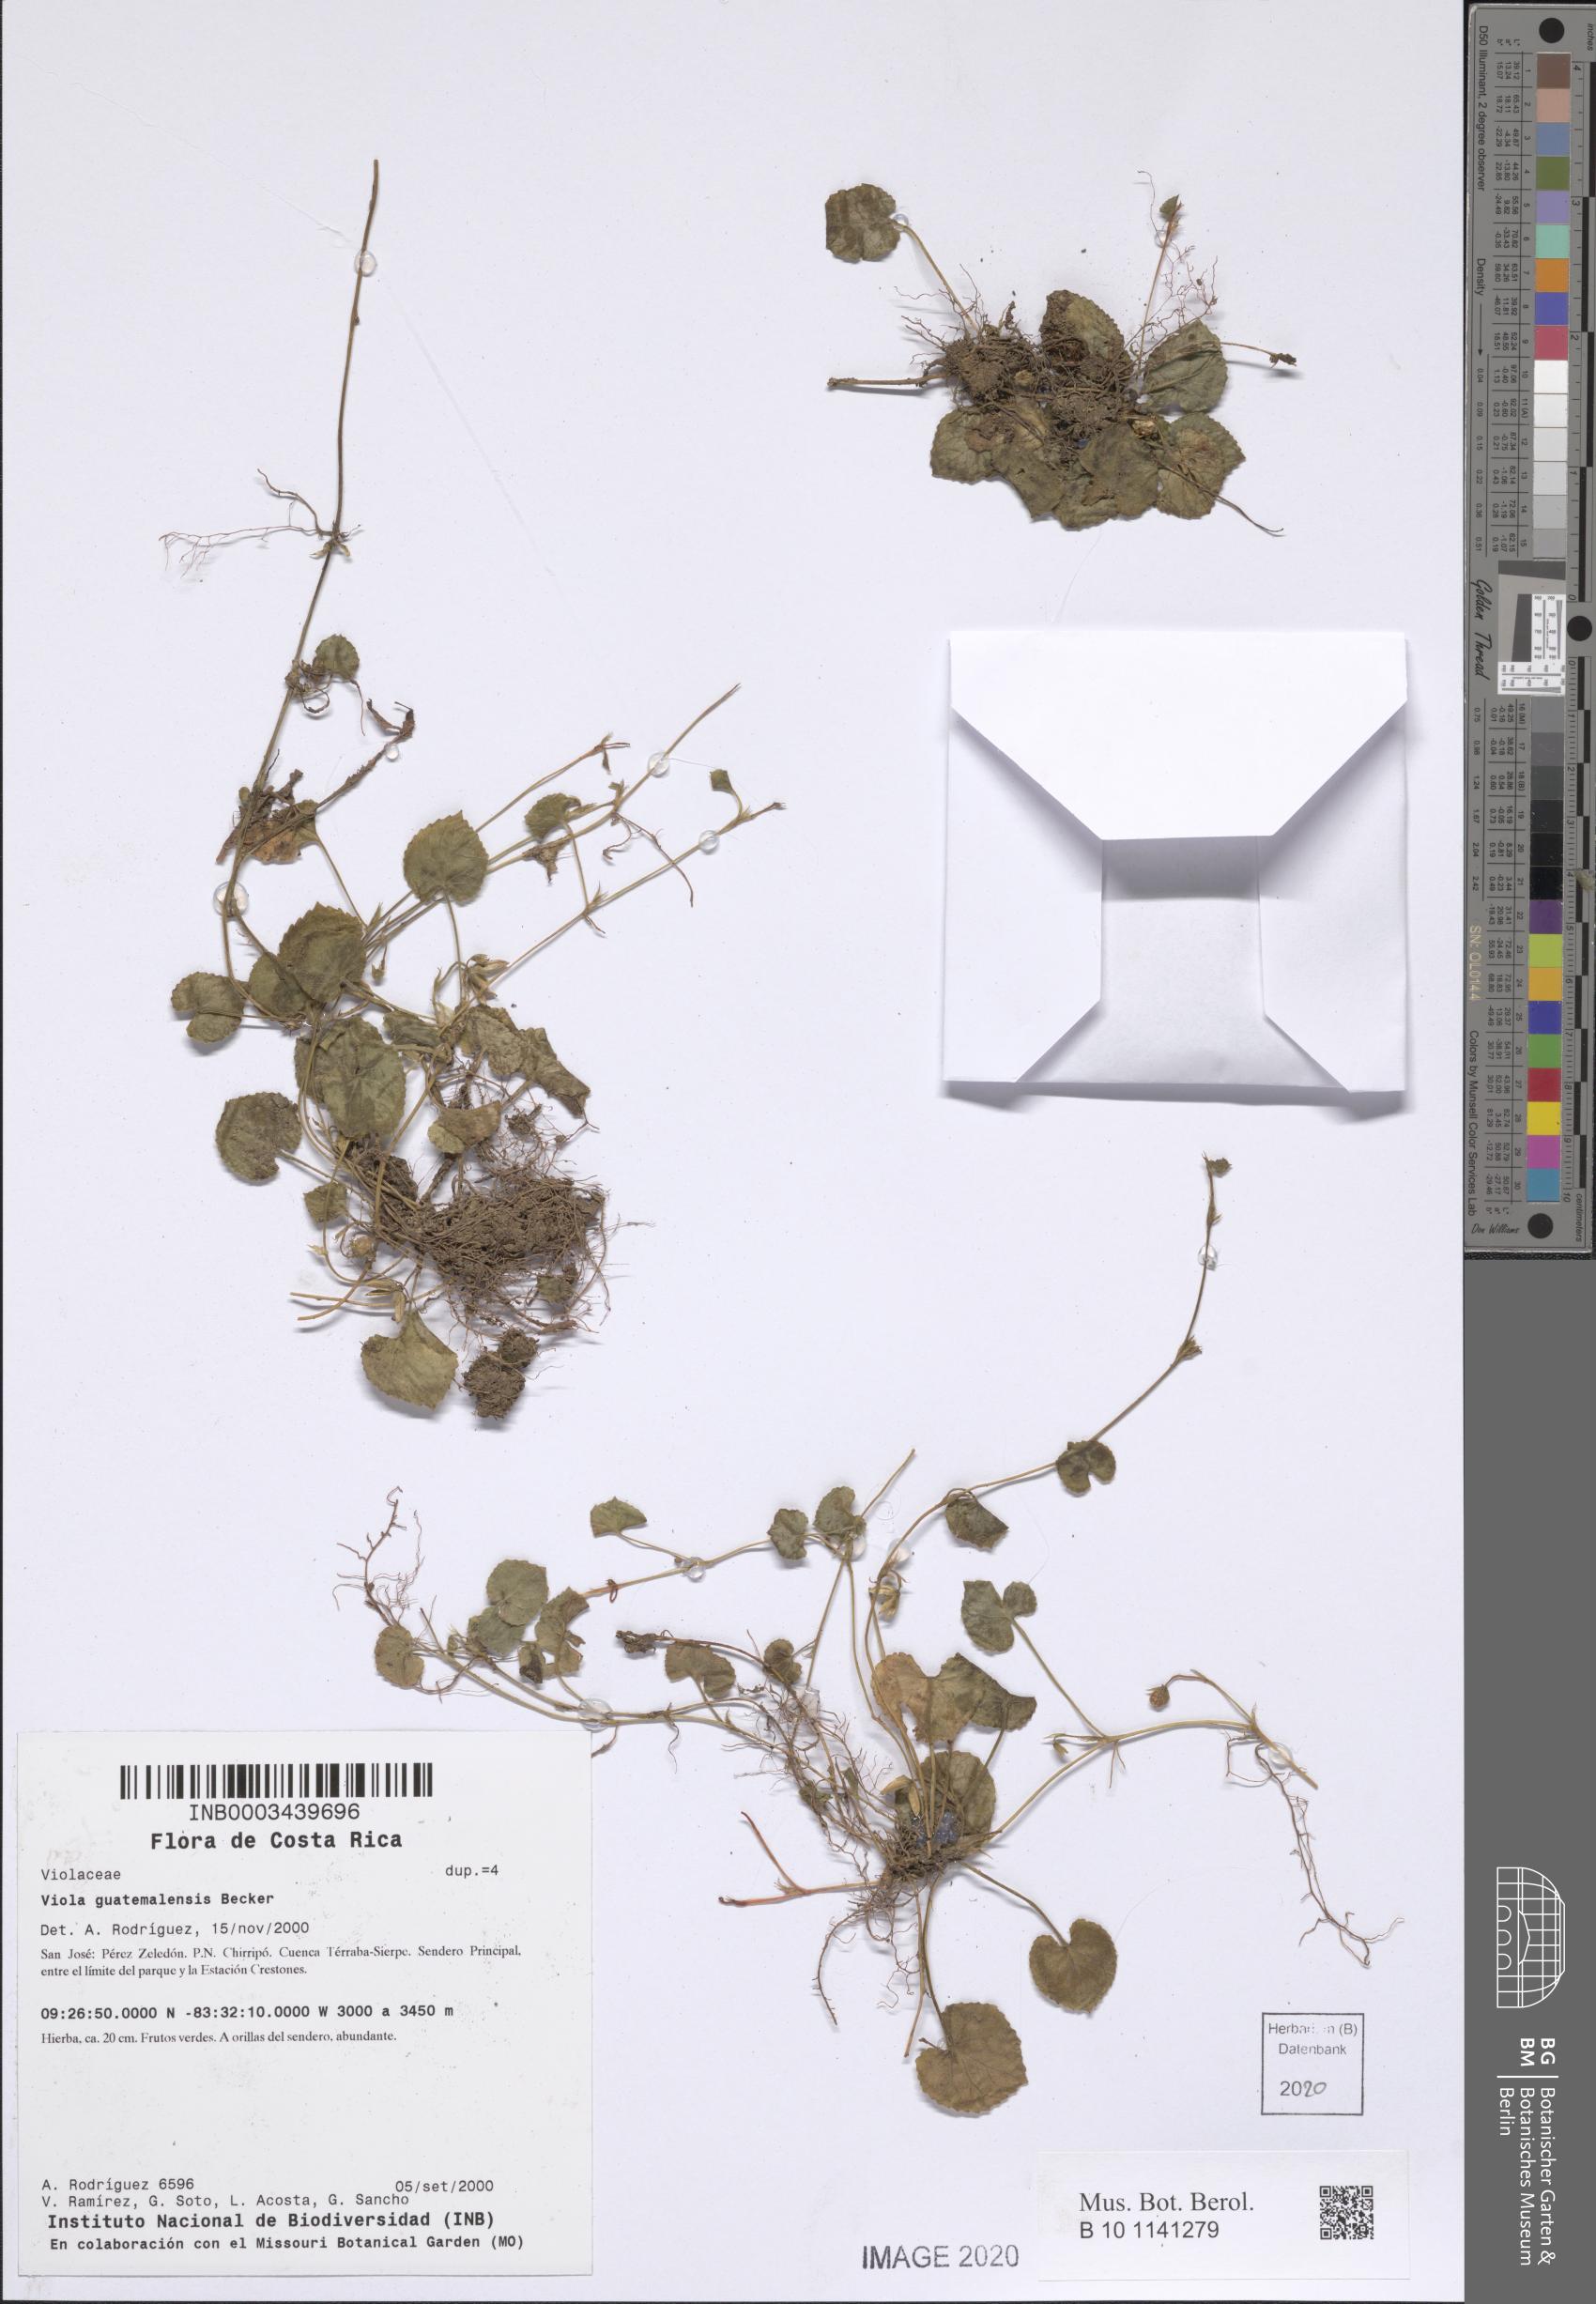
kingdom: Plantae
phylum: Tracheophyta
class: Magnoliopsida
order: Malpighiales
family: Violaceae
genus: Viola
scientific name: Viola guatemalensis
